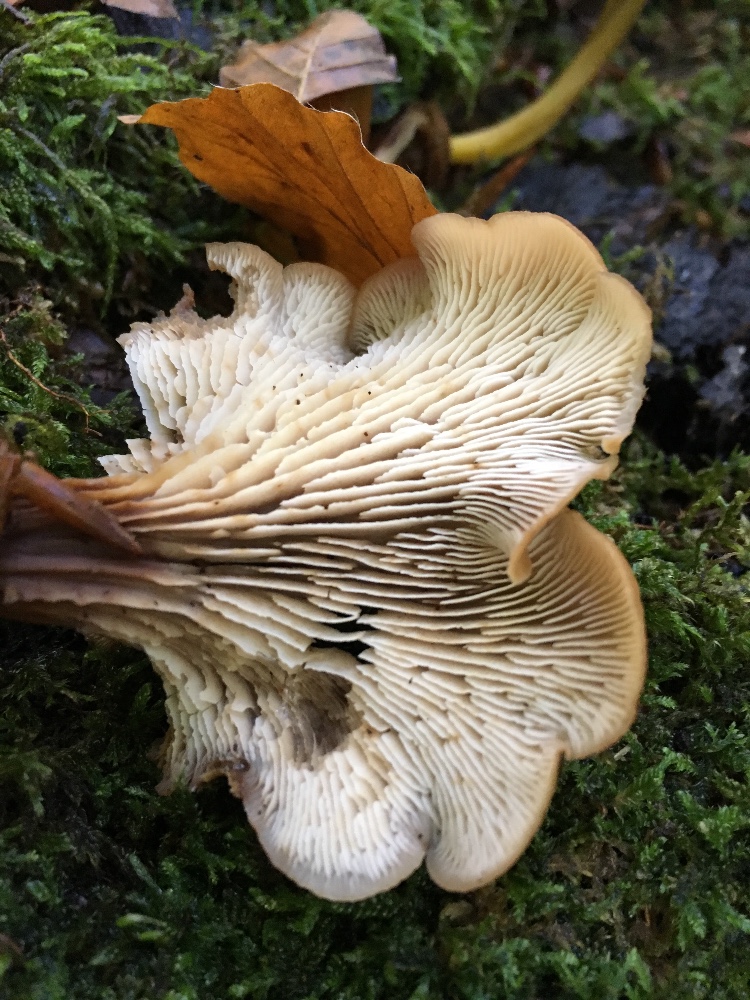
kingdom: Fungi
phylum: Basidiomycota
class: Agaricomycetes
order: Russulales
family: Auriscalpiaceae
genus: Lentinellus
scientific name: Lentinellus cochleatus
